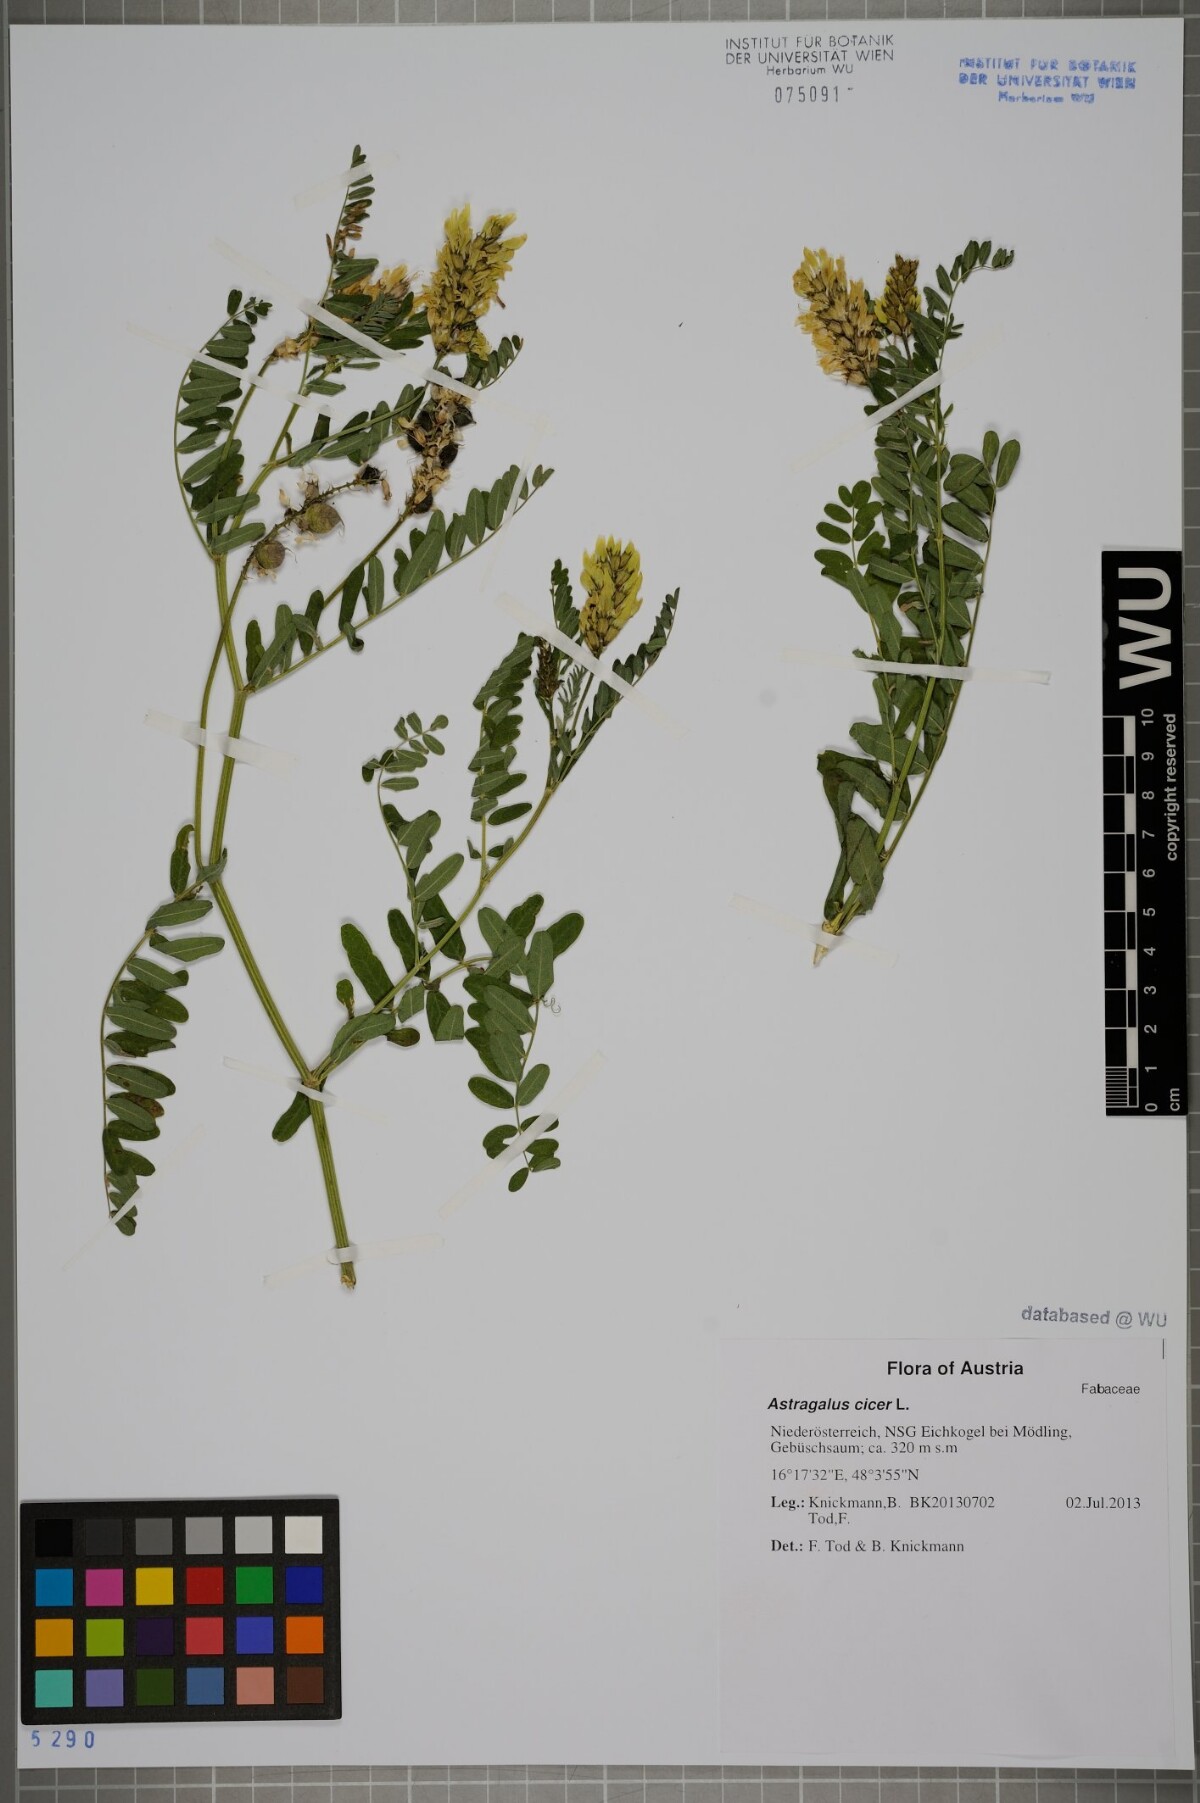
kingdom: Plantae
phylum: Tracheophyta
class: Magnoliopsida
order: Fabales
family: Fabaceae
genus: Astragalus
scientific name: Astragalus cicer
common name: Chick-pea milk-vetch
